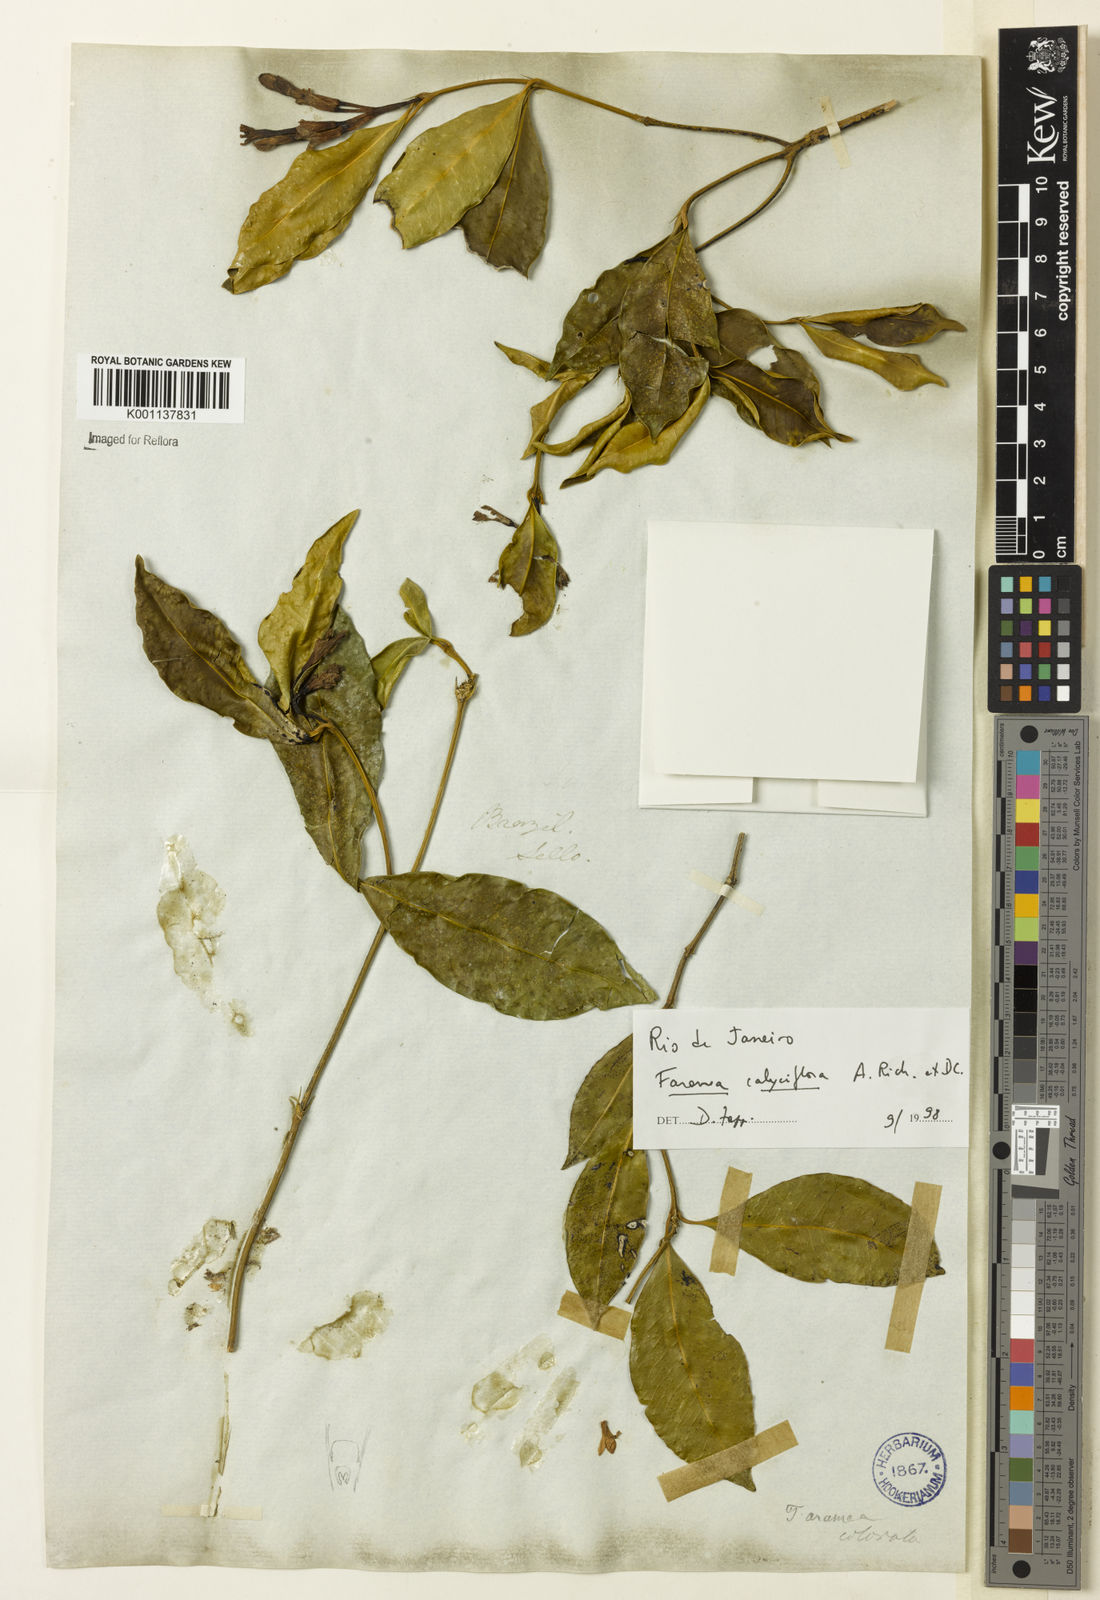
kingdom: Plantae
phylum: Tracheophyta
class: Magnoliopsida
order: Gentianales
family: Rubiaceae
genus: Faramea
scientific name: Faramea calyciflora
